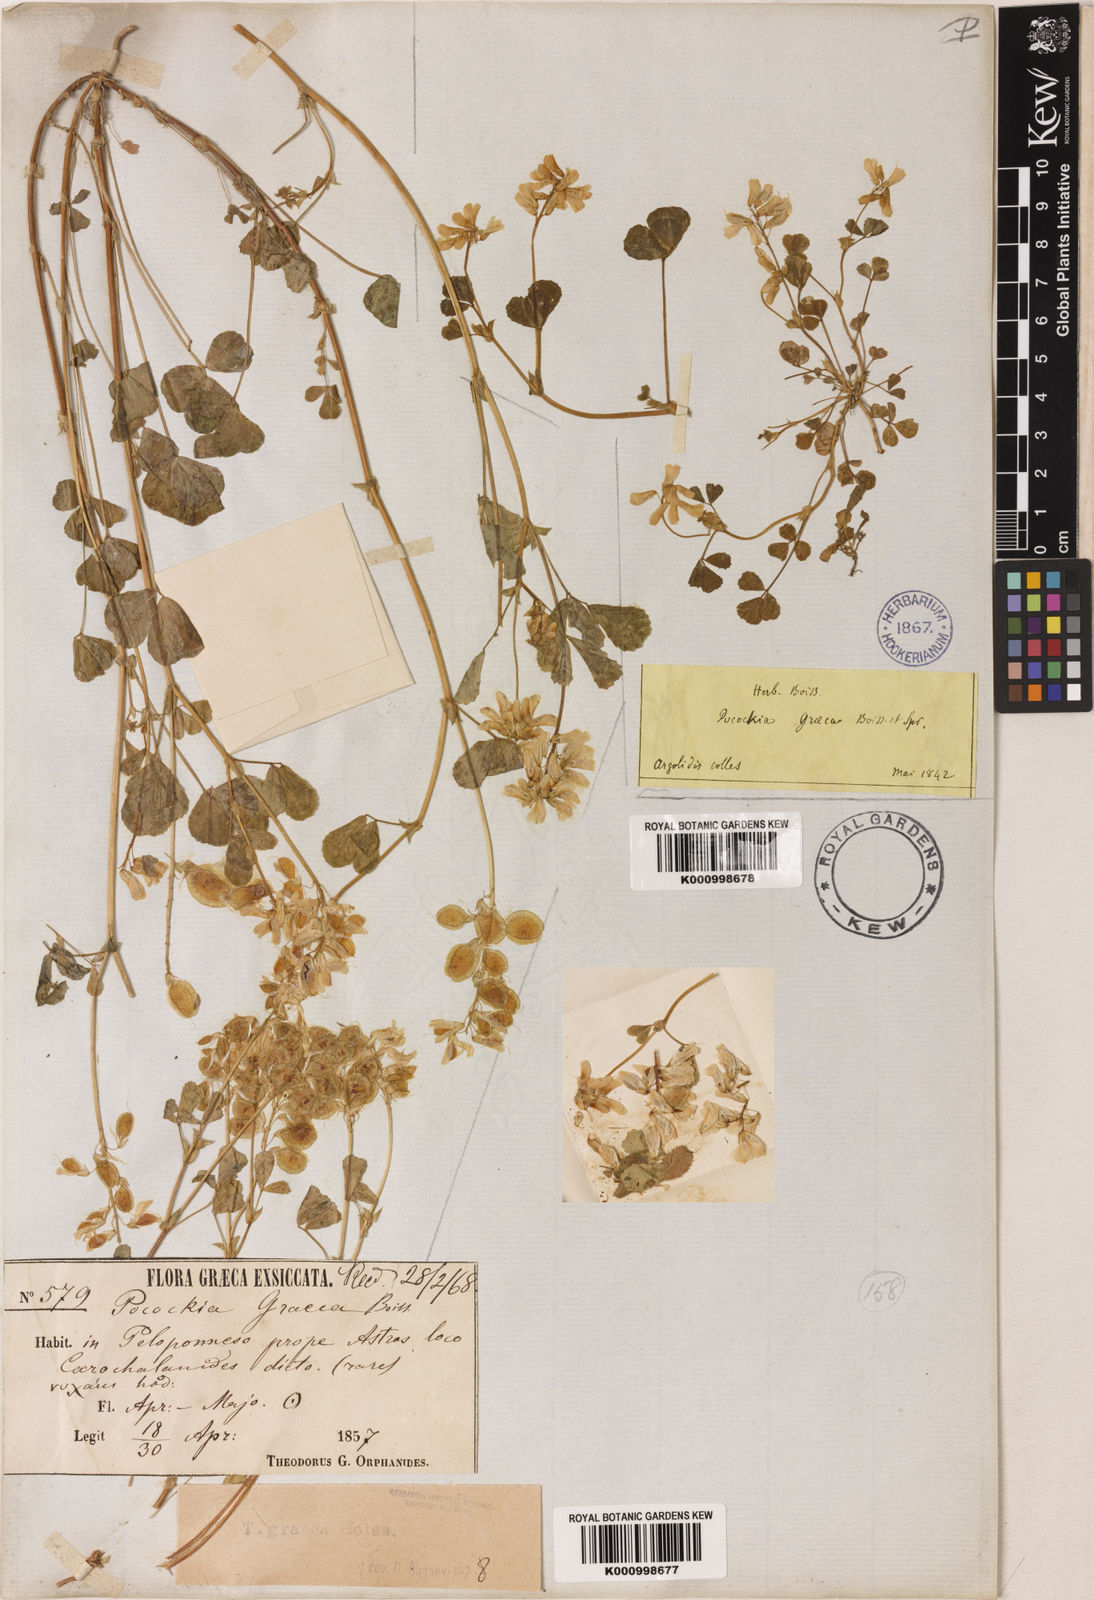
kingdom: Plantae
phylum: Tracheophyta
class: Magnoliopsida
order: Fabales
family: Fabaceae
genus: Trigonella
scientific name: Trigonella graeca
